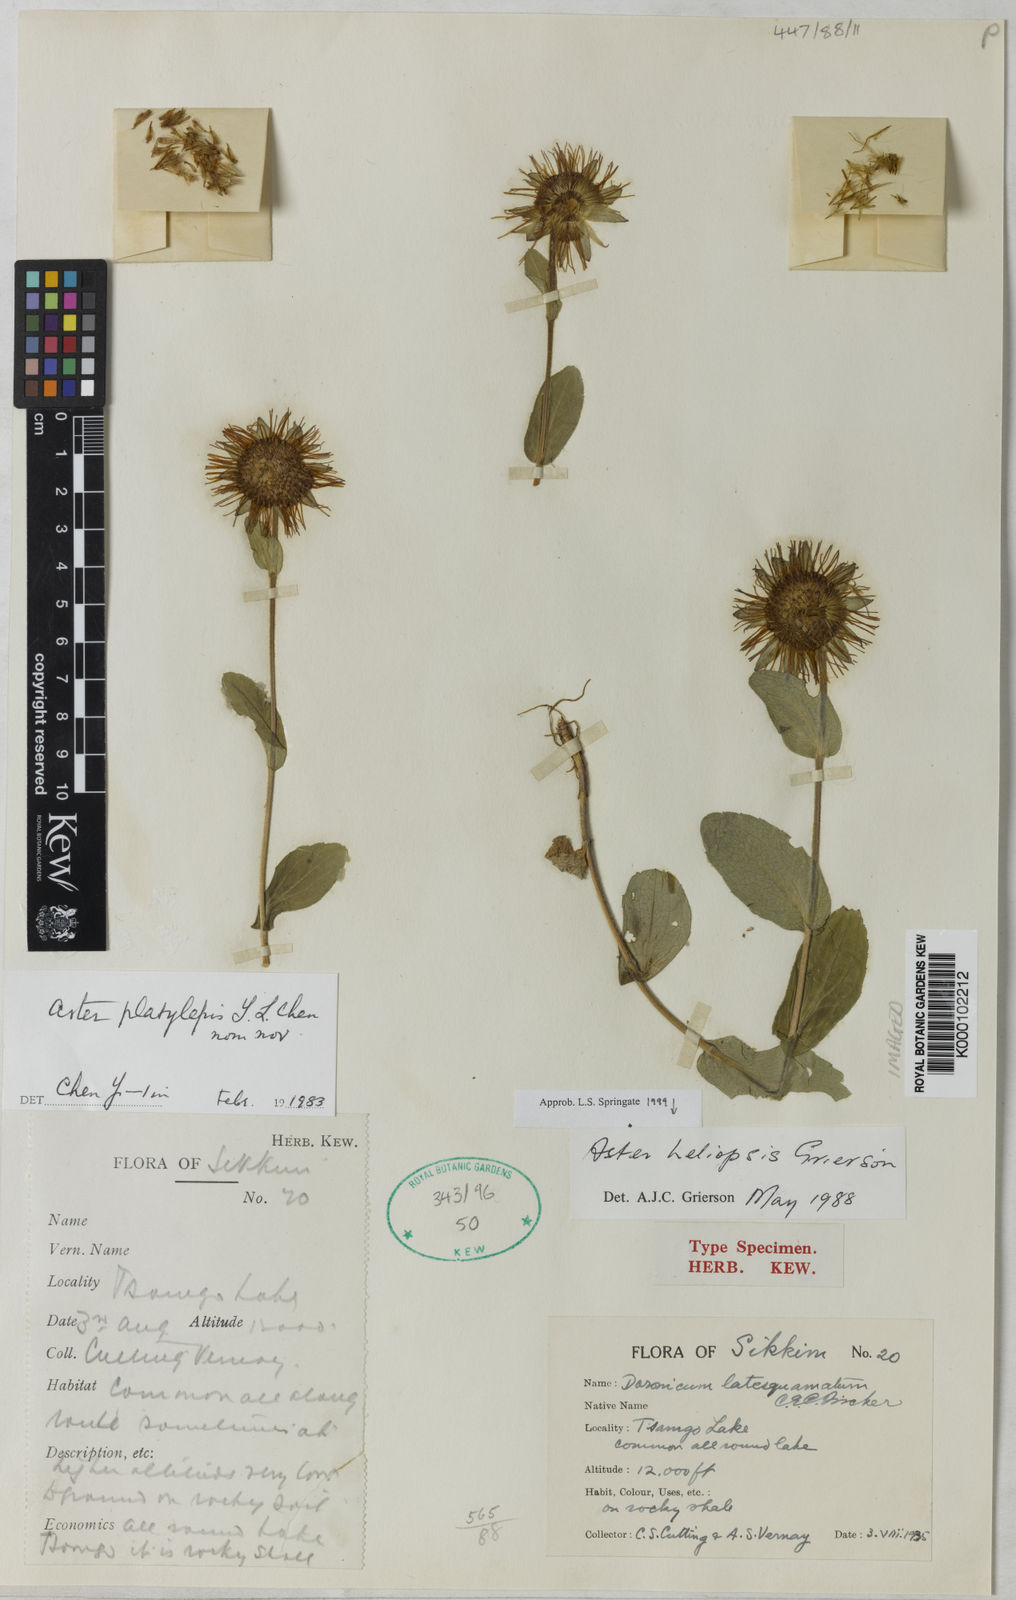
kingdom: Plantae
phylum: Tracheophyta
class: Magnoliopsida
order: Asterales
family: Asteraceae
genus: Tibetiodes
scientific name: Tibetiodes himalaica
